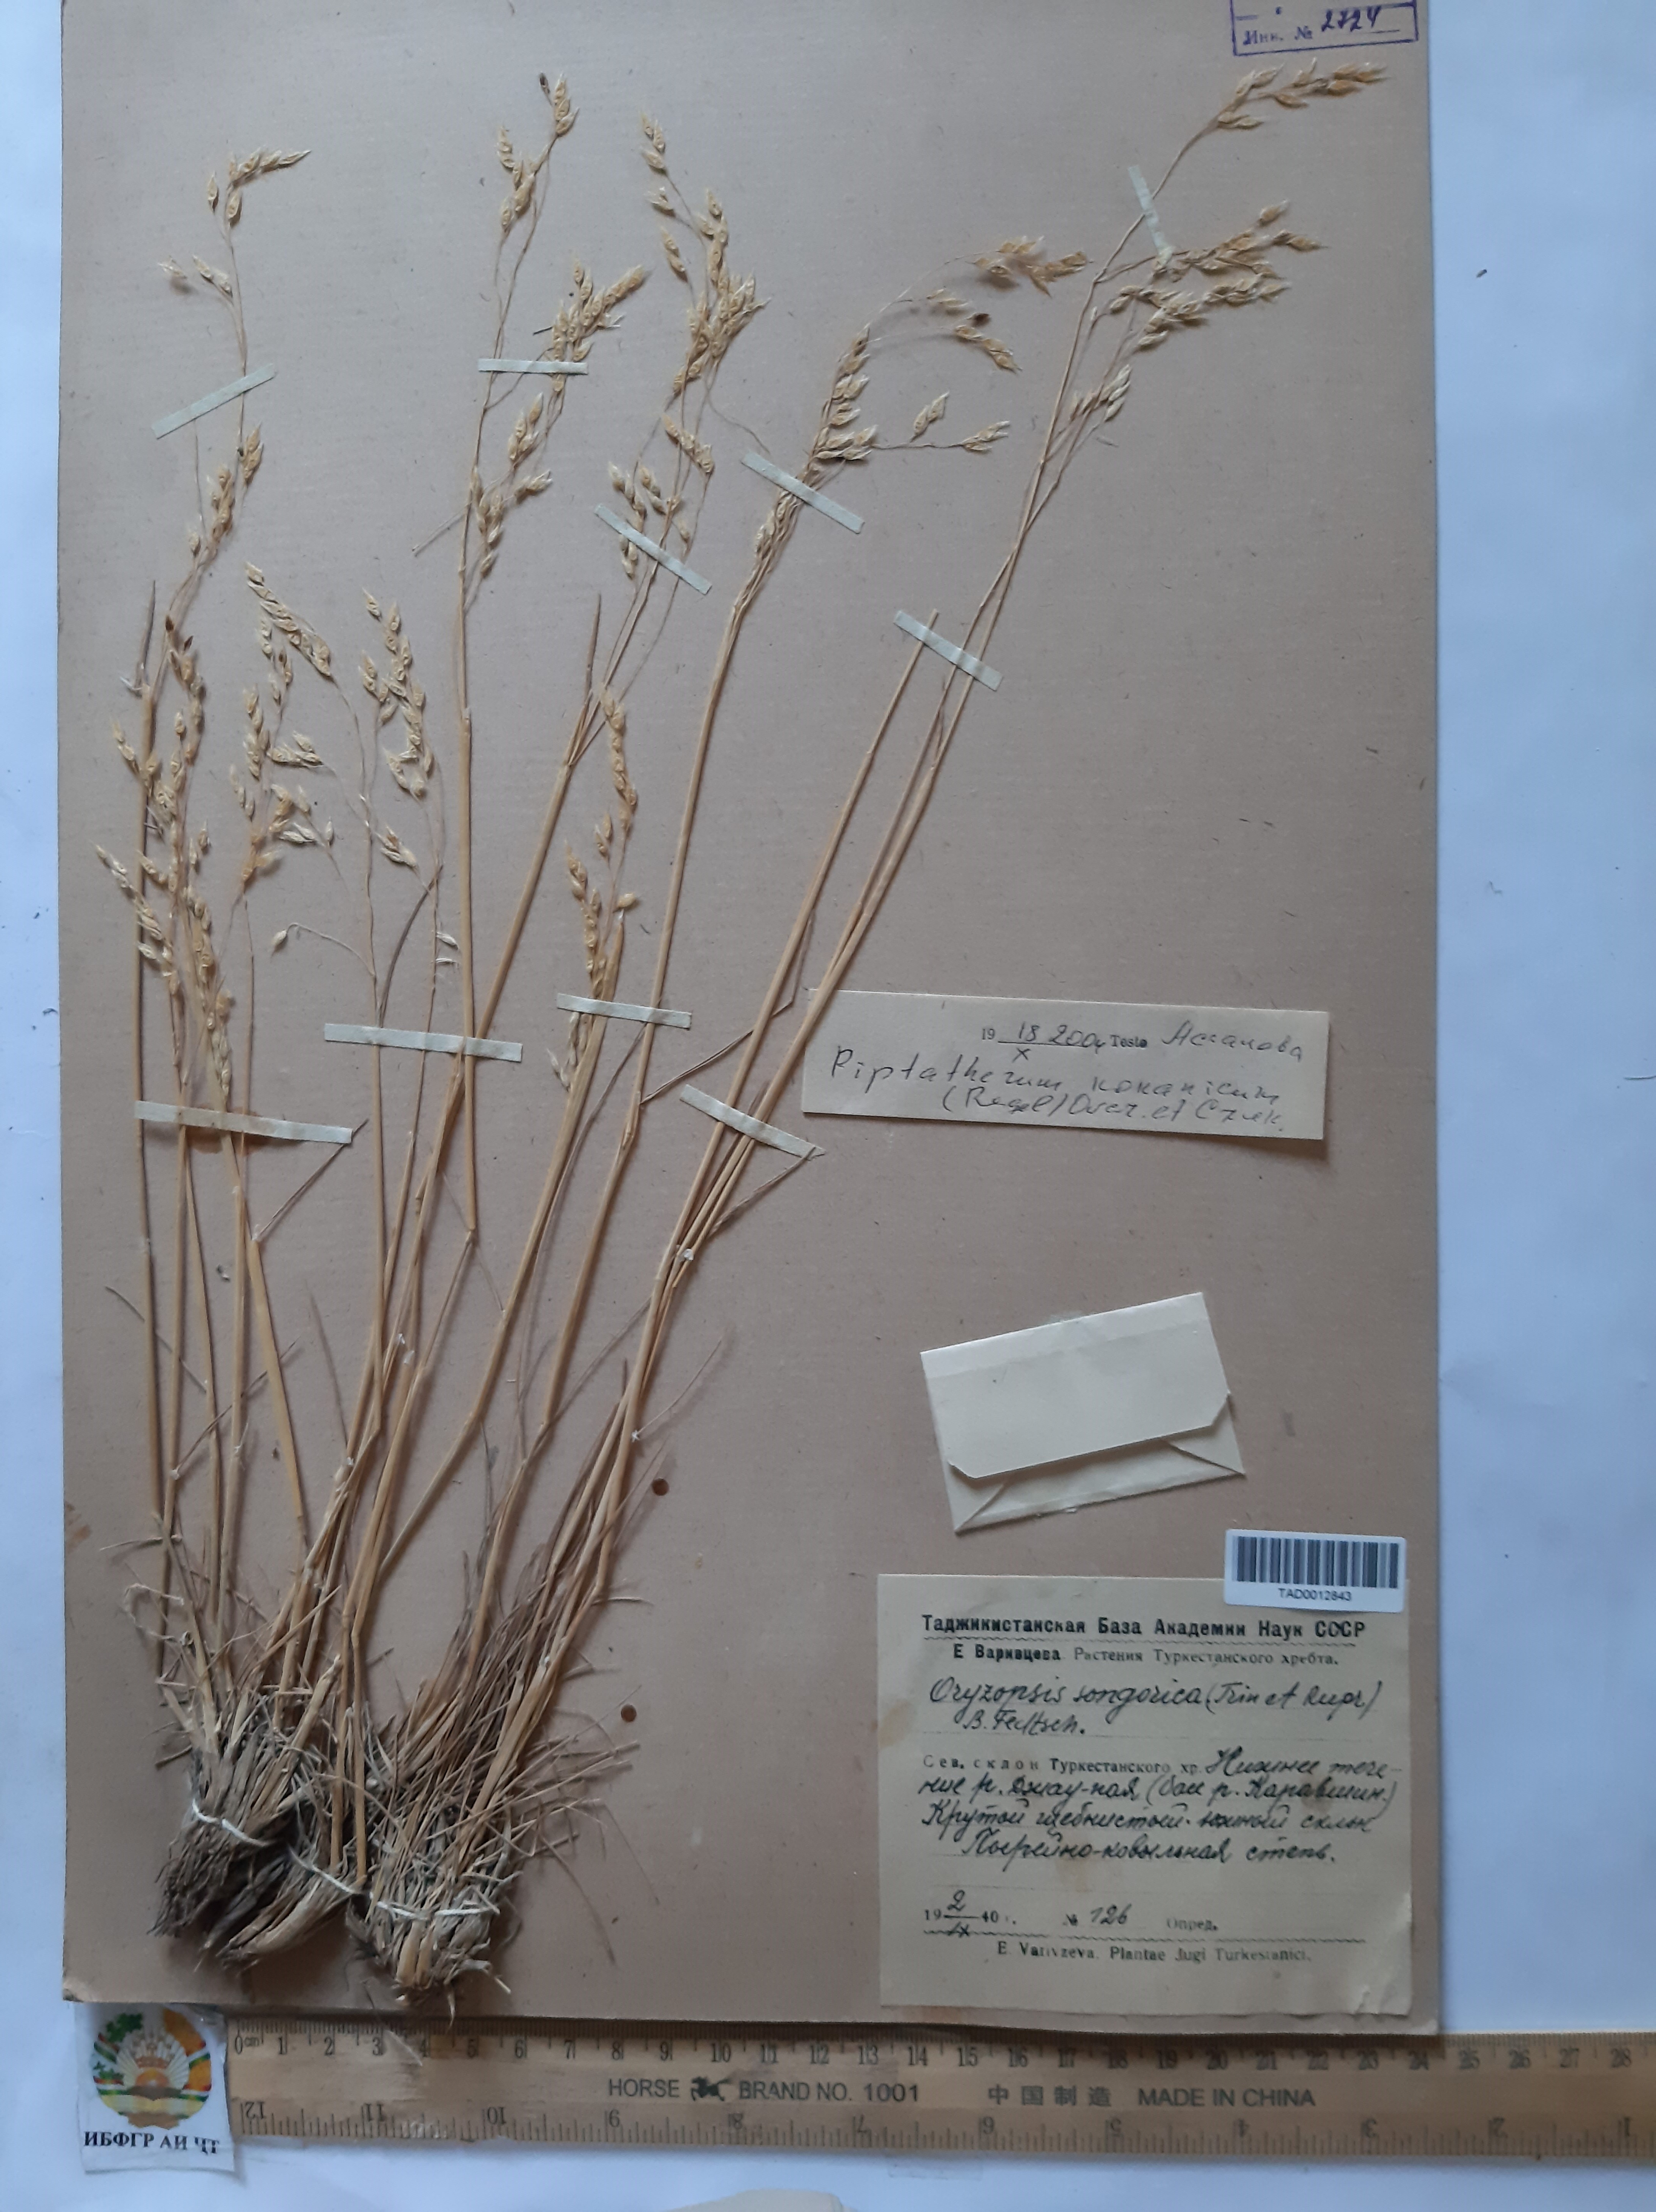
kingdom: Plantae
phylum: Tracheophyta
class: Liliopsida
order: Poales
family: Poaceae
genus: Piptatherum
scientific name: Piptatherum songaricum
